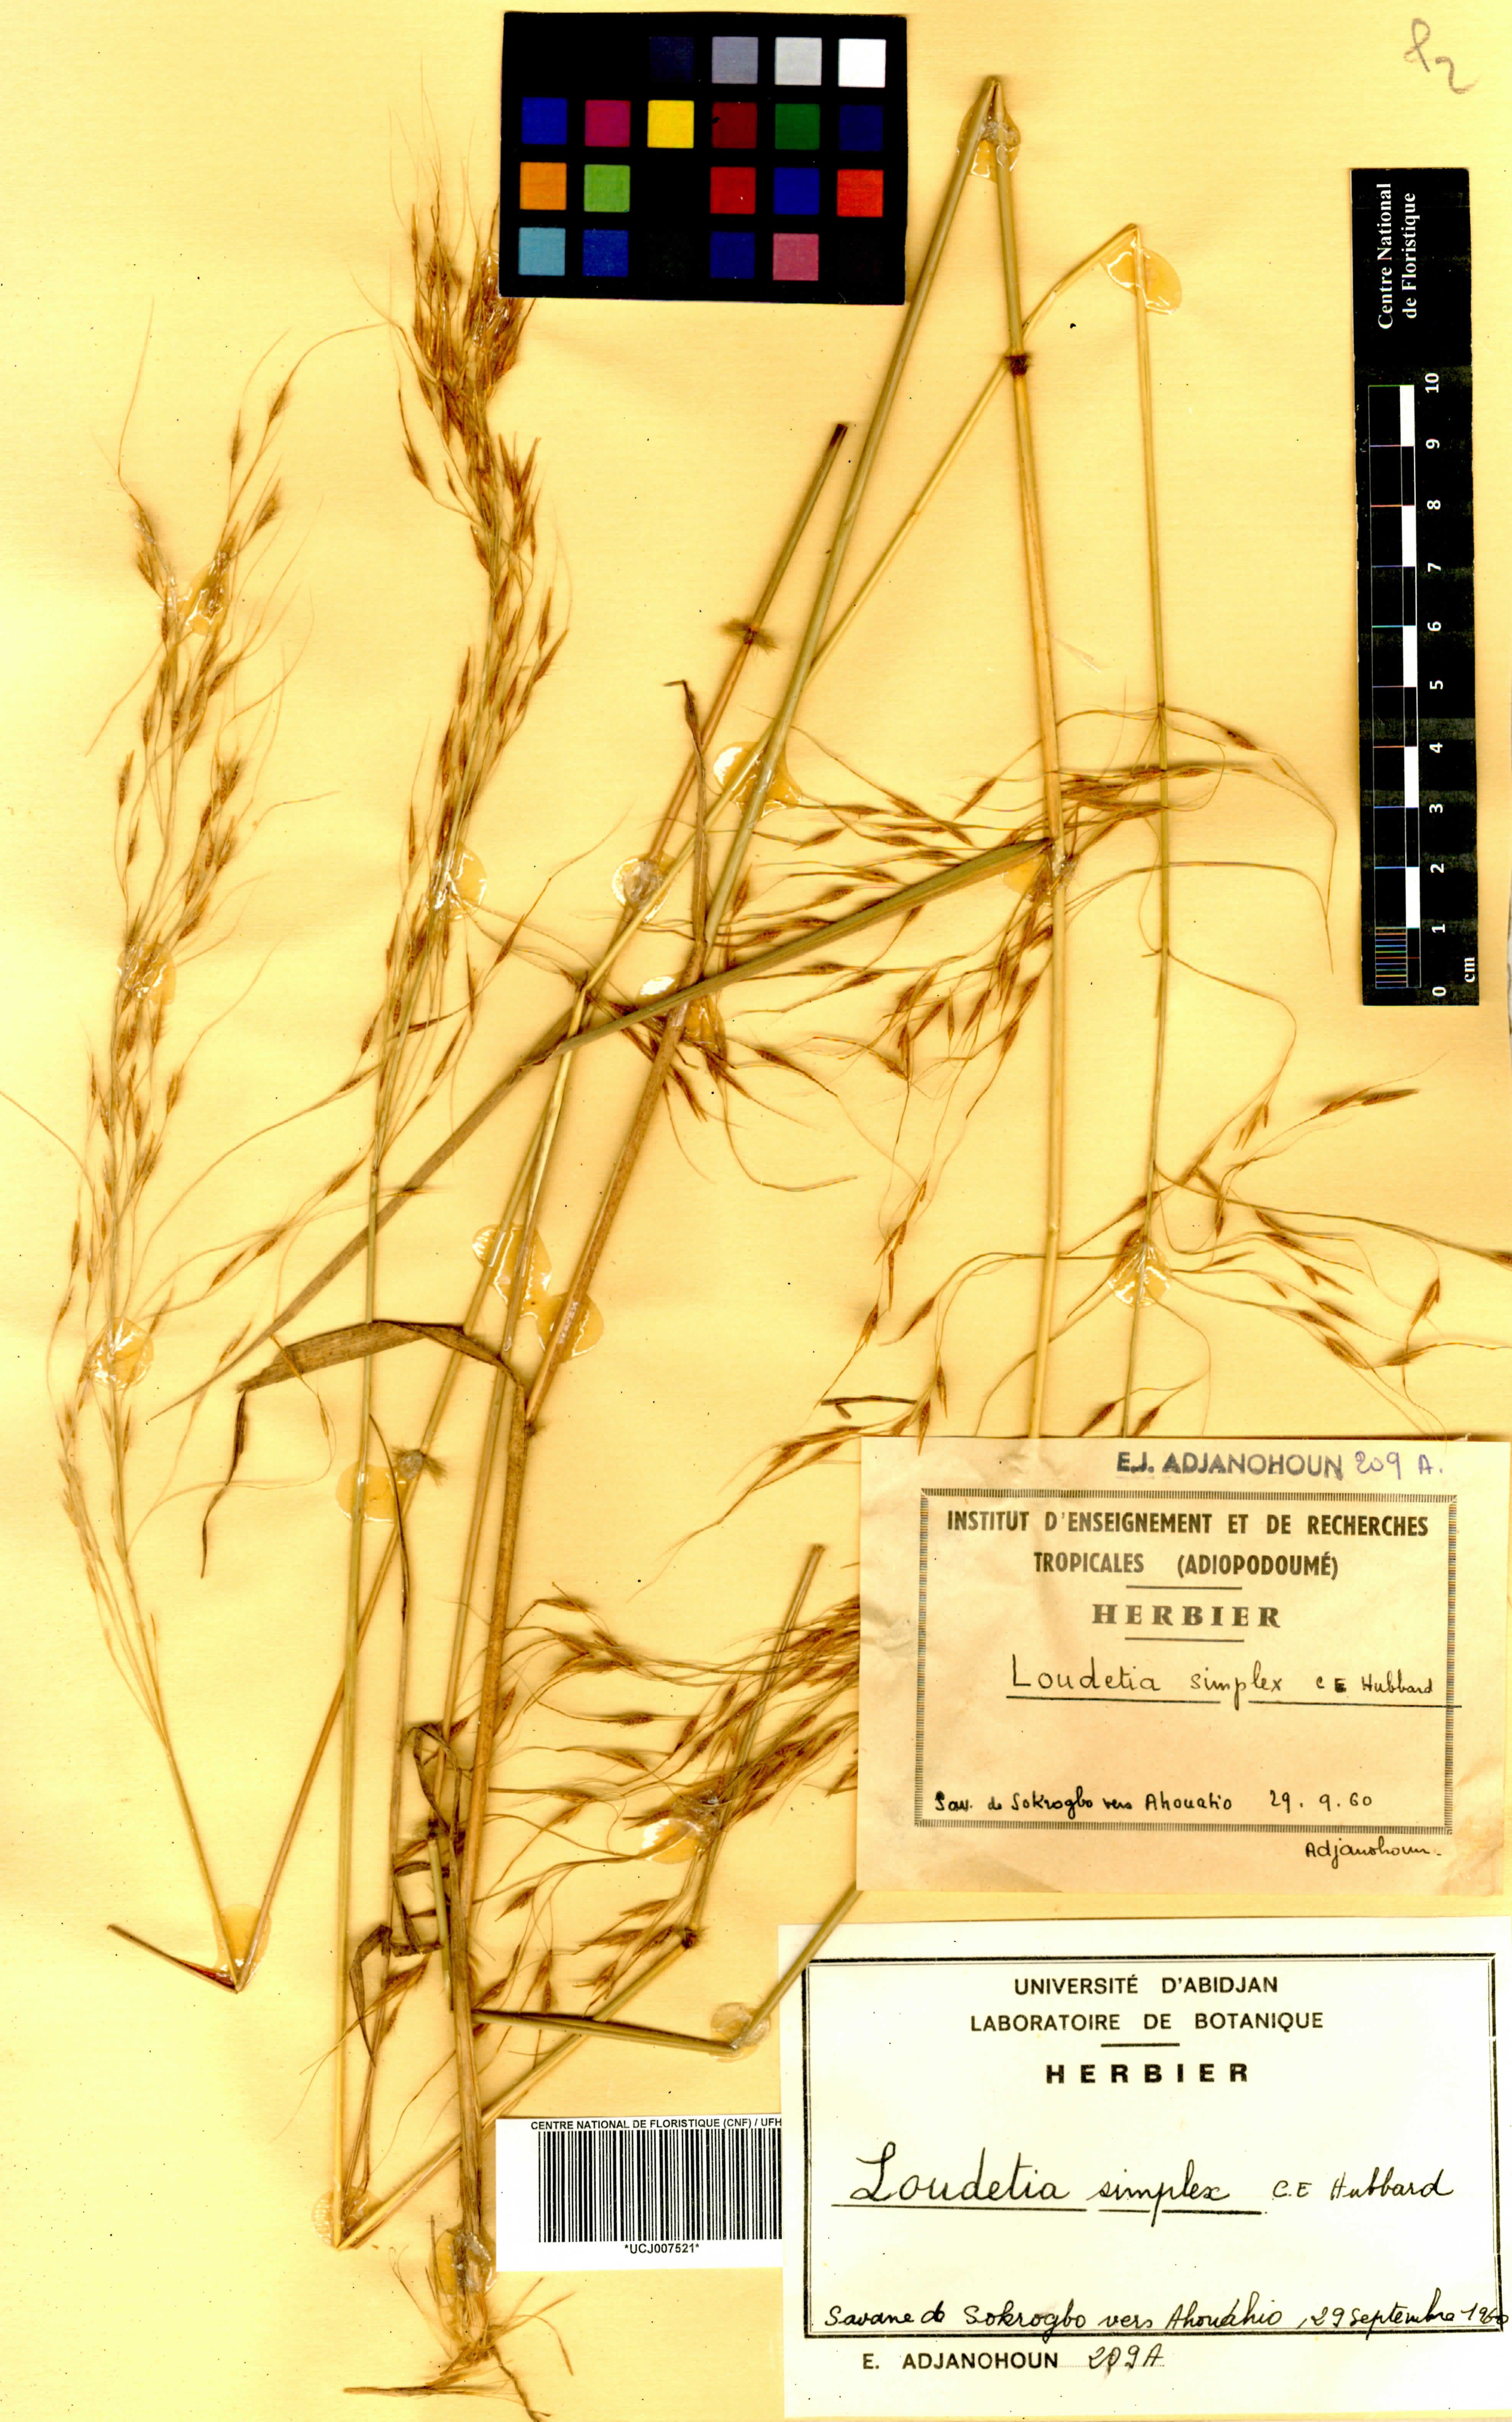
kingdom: Plantae
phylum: Tracheophyta
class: Liliopsida
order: Poales
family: Poaceae
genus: Loudetia
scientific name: Loudetia simplex
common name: Common russet grass
